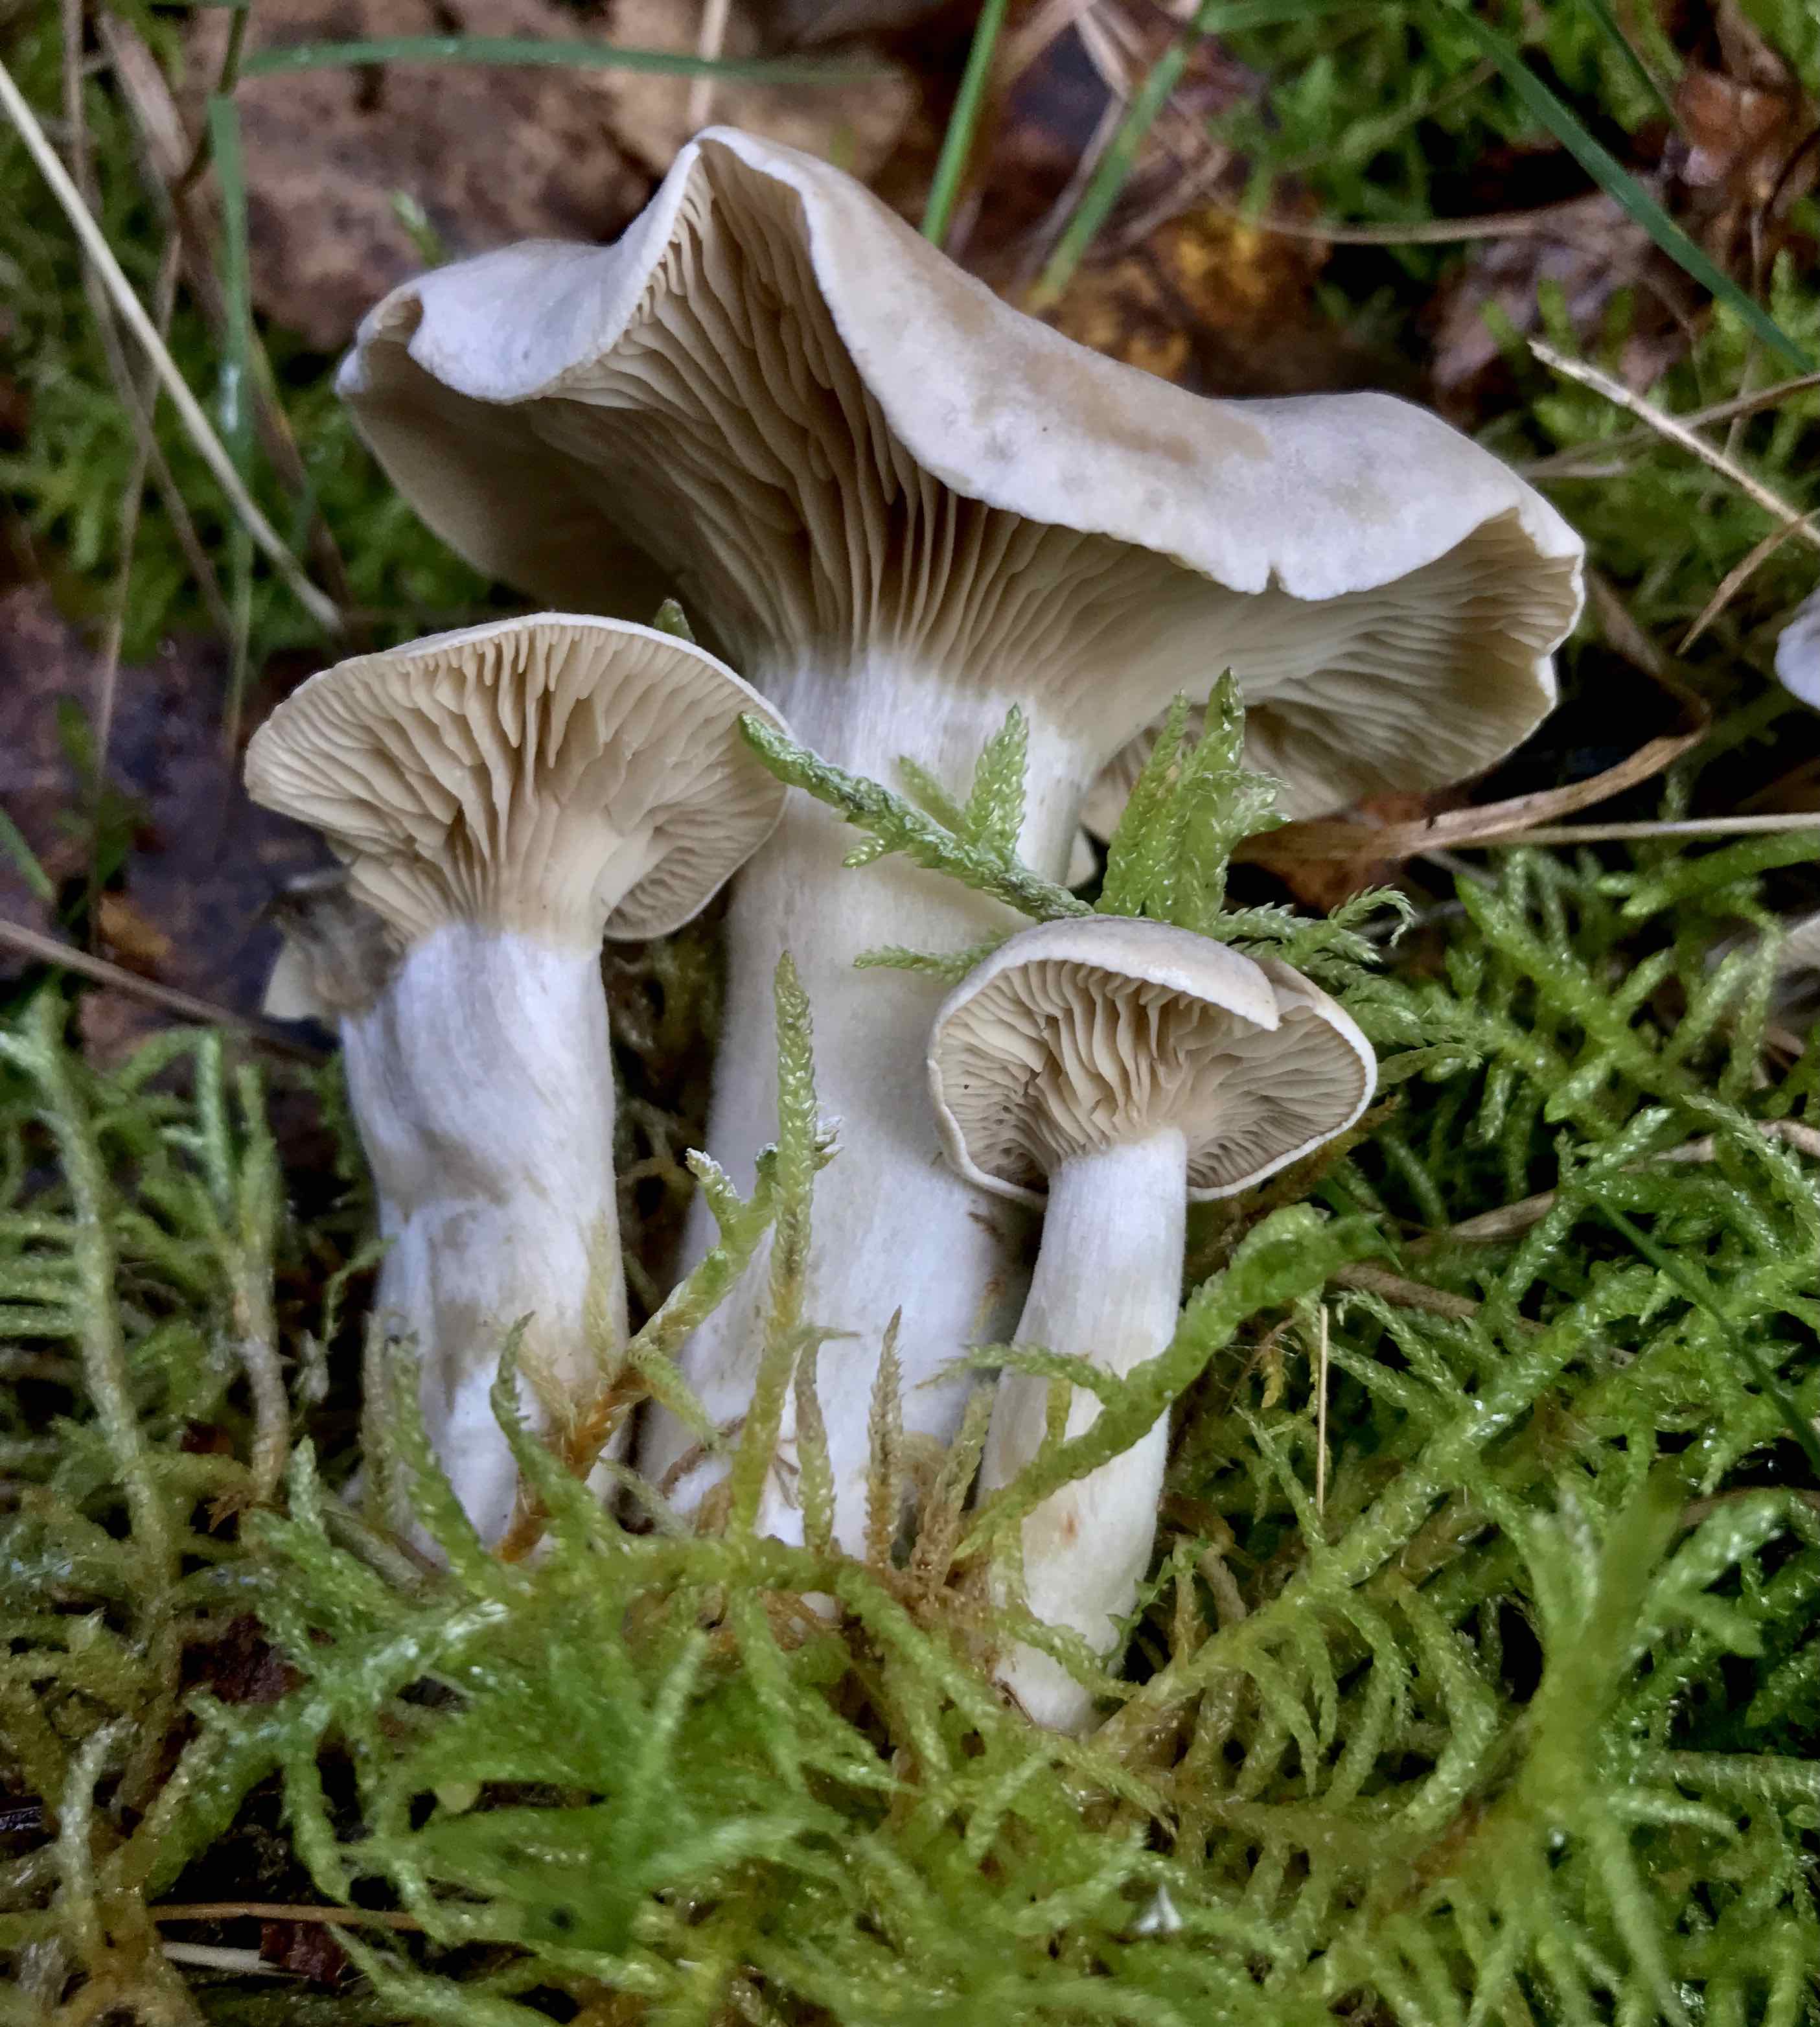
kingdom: Fungi
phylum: Basidiomycota
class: Agaricomycetes
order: Agaricales
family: Entolomataceae
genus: Clitopilus
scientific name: Clitopilus prunulus
